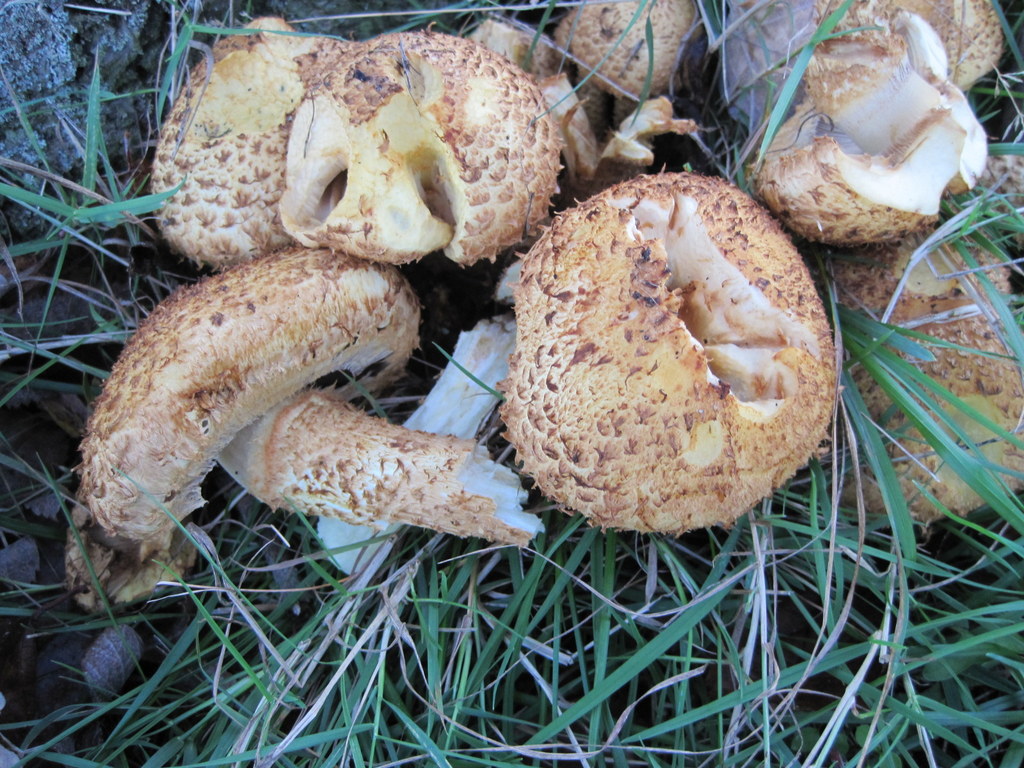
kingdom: Fungi
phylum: Basidiomycota
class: Agaricomycetes
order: Agaricales
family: Strophariaceae
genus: Pholiota
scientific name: Pholiota squarrosa
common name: krumskællet skælhat
